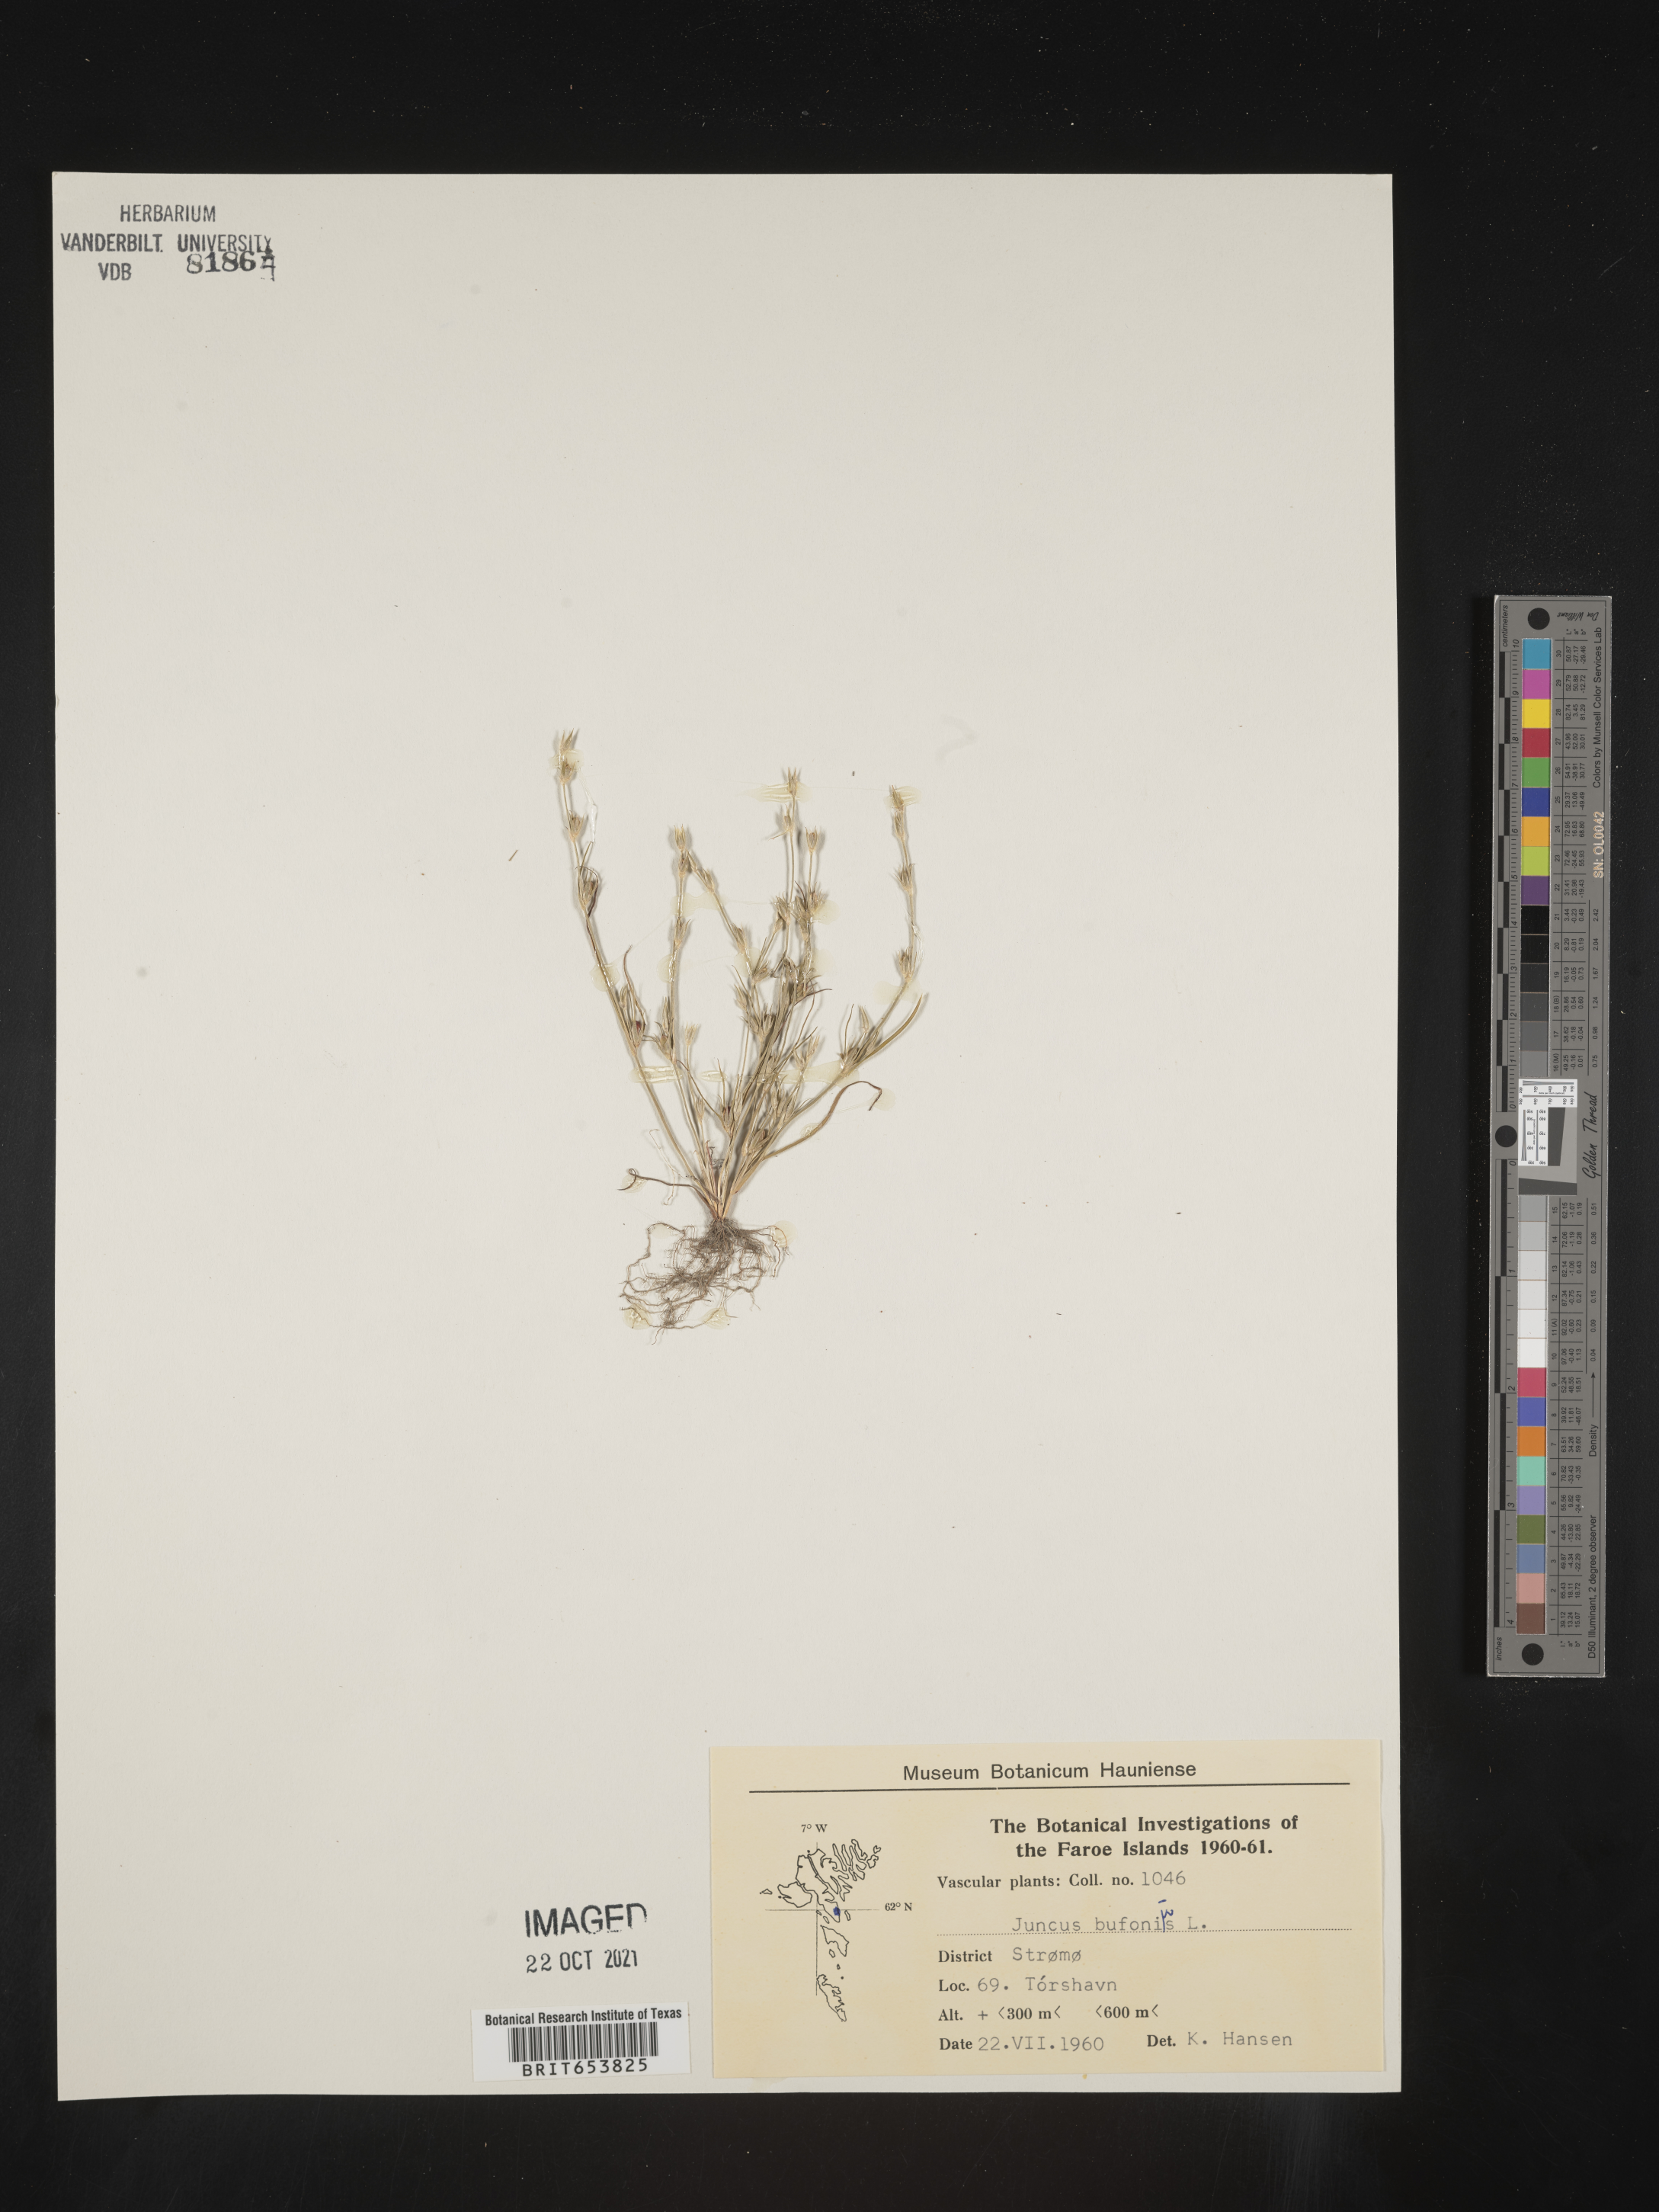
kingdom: Plantae
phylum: Tracheophyta
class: Liliopsida
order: Poales
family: Juncaceae
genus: Juncus
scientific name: Juncus bufonius
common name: Toad rush
